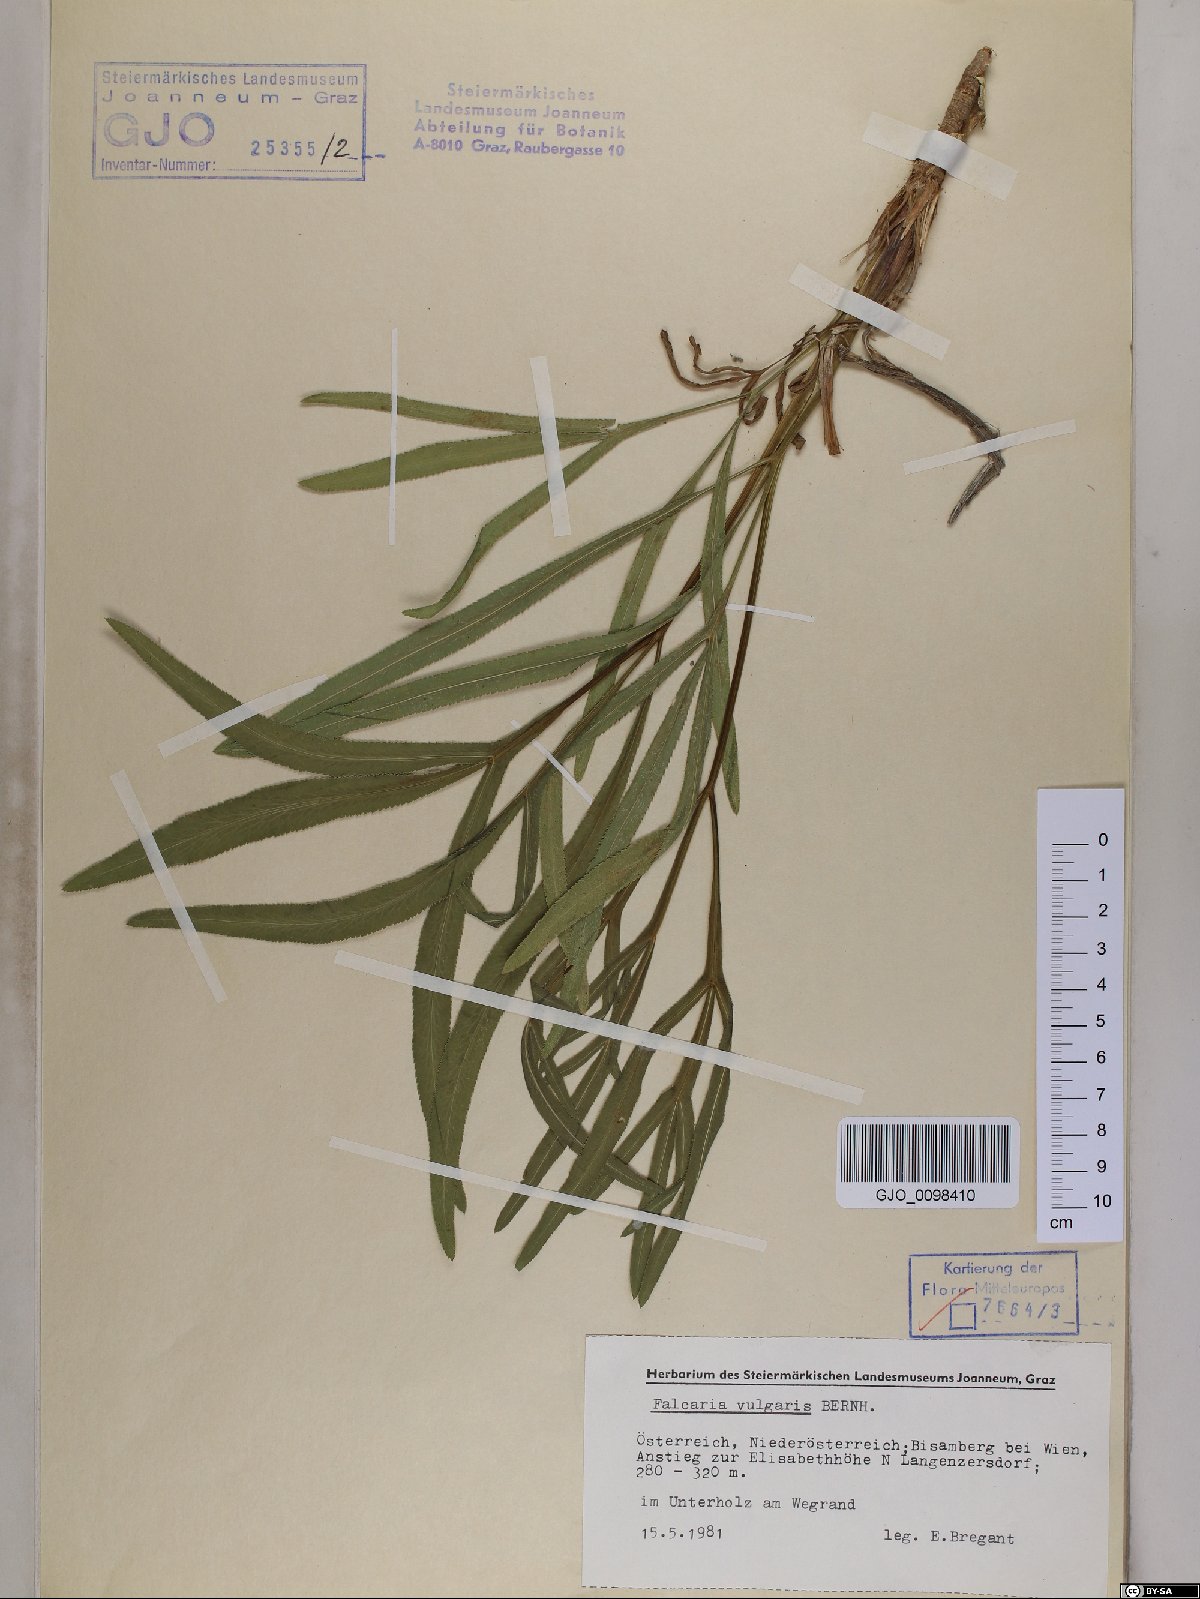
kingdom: Plantae
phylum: Tracheophyta
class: Magnoliopsida
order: Apiales
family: Apiaceae
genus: Falcaria
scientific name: Falcaria vulgaris
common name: Longleaf
